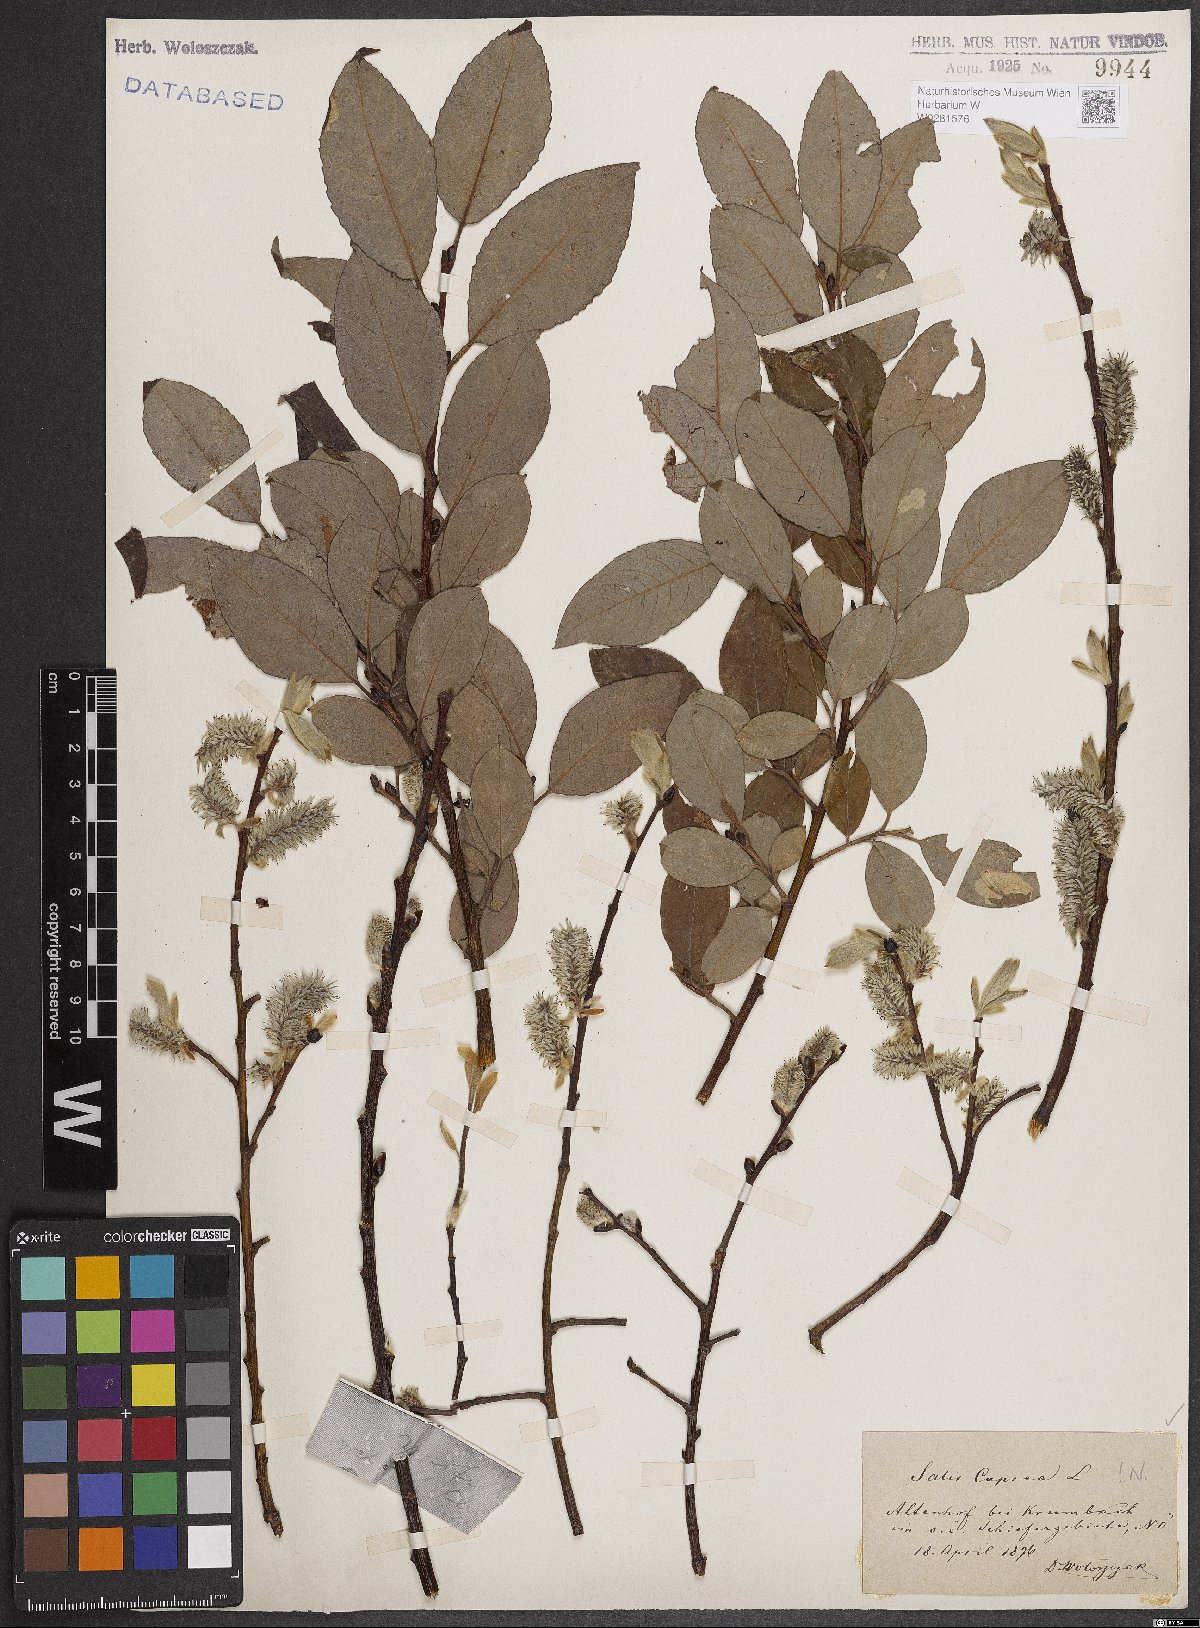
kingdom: Plantae
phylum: Tracheophyta
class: Magnoliopsida
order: Malpighiales
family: Salicaceae
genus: Salix
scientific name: Salix caprea
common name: Goat willow
